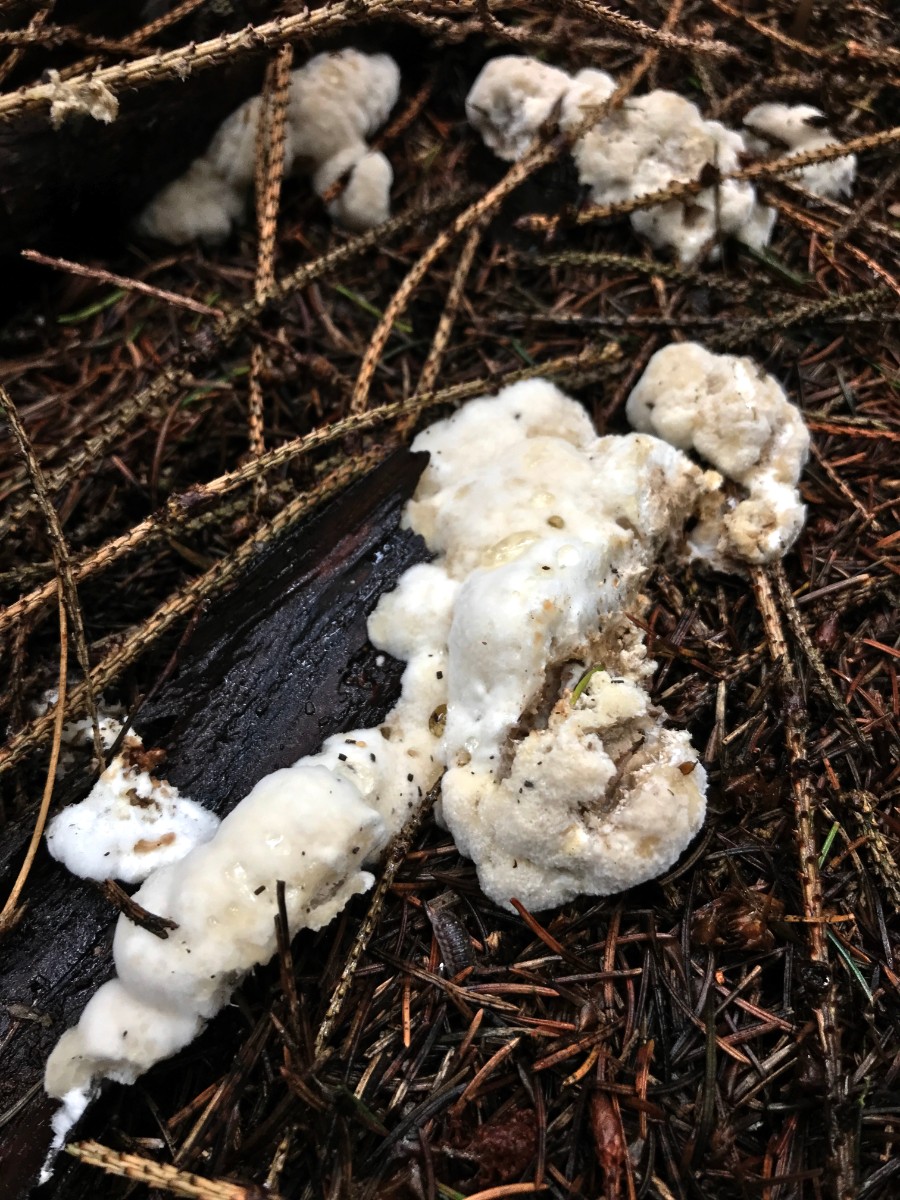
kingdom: Fungi
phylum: Basidiomycota
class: Agaricomycetes
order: Polyporales
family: Dacryobolaceae
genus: Postia
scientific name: Postia ptychogaster
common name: støvende kødporesvamp
